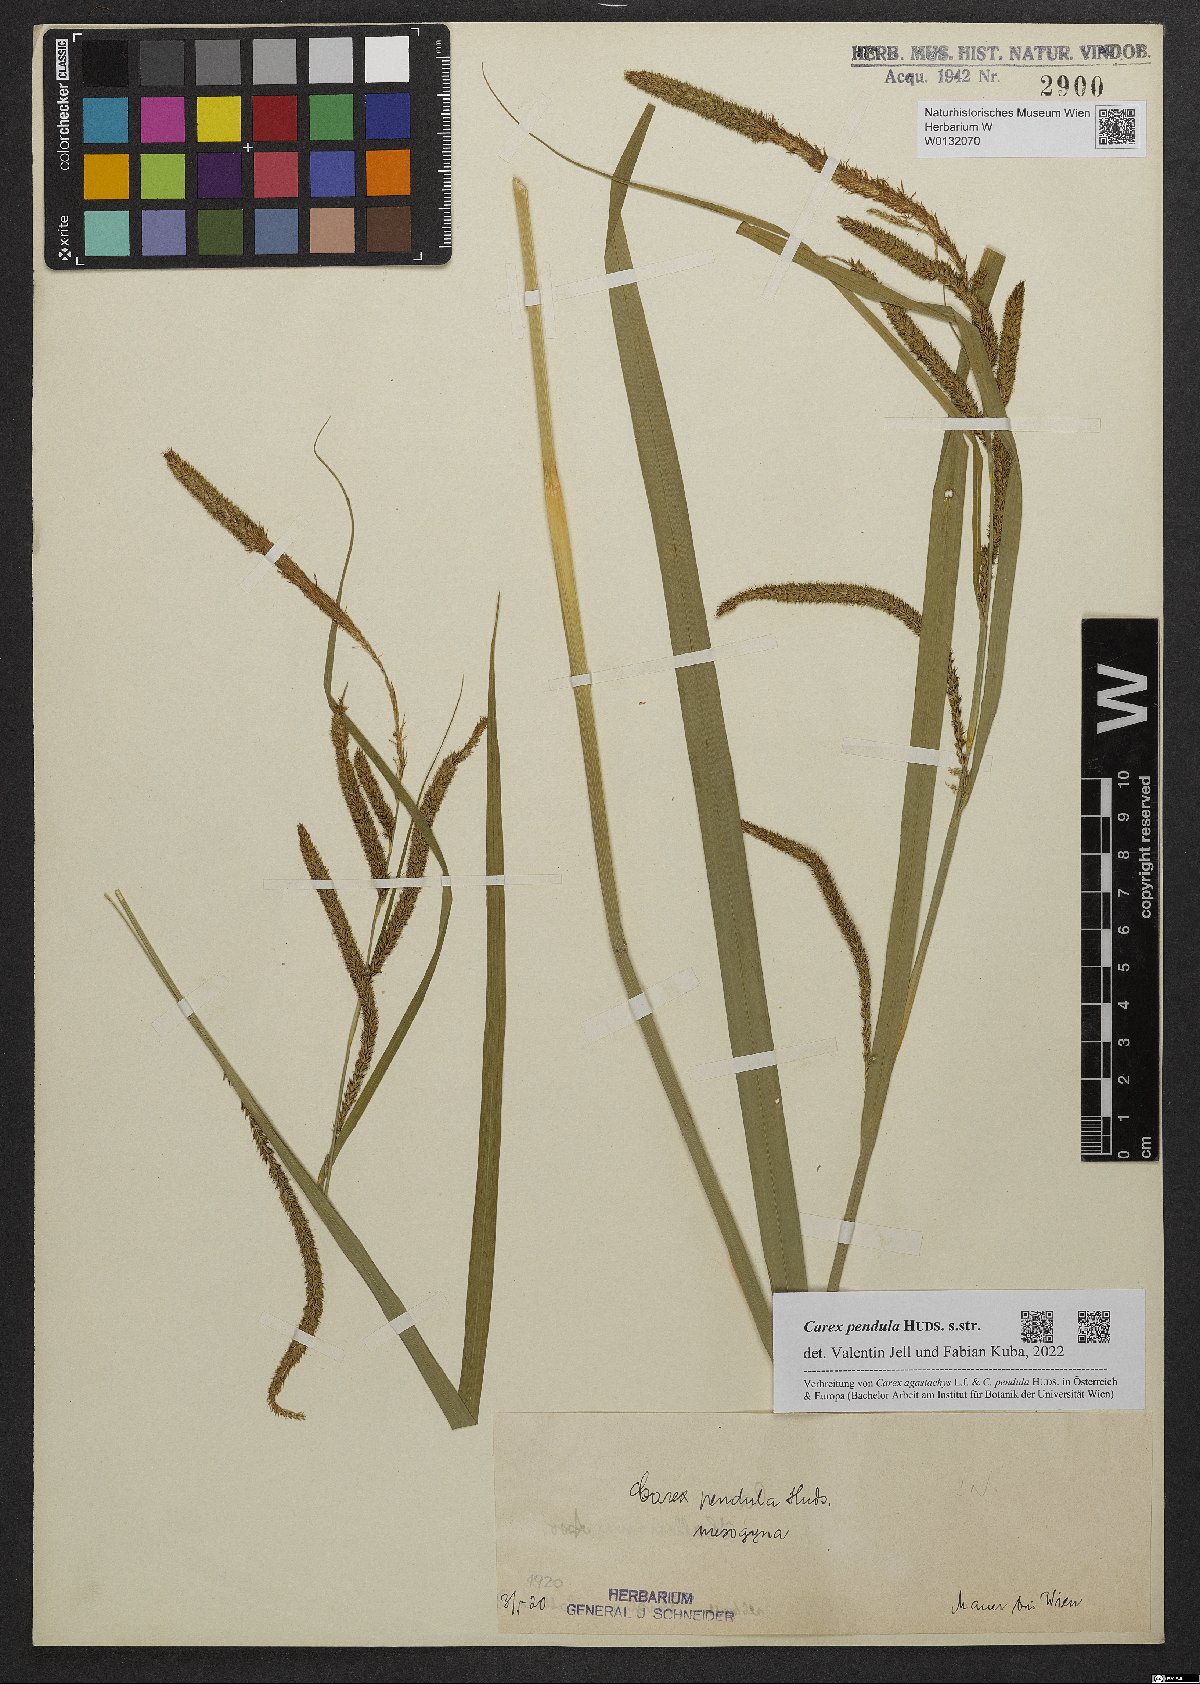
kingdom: Plantae
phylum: Tracheophyta
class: Liliopsida
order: Poales
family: Cyperaceae
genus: Carex
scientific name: Carex pendula
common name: Pendulous sedge
